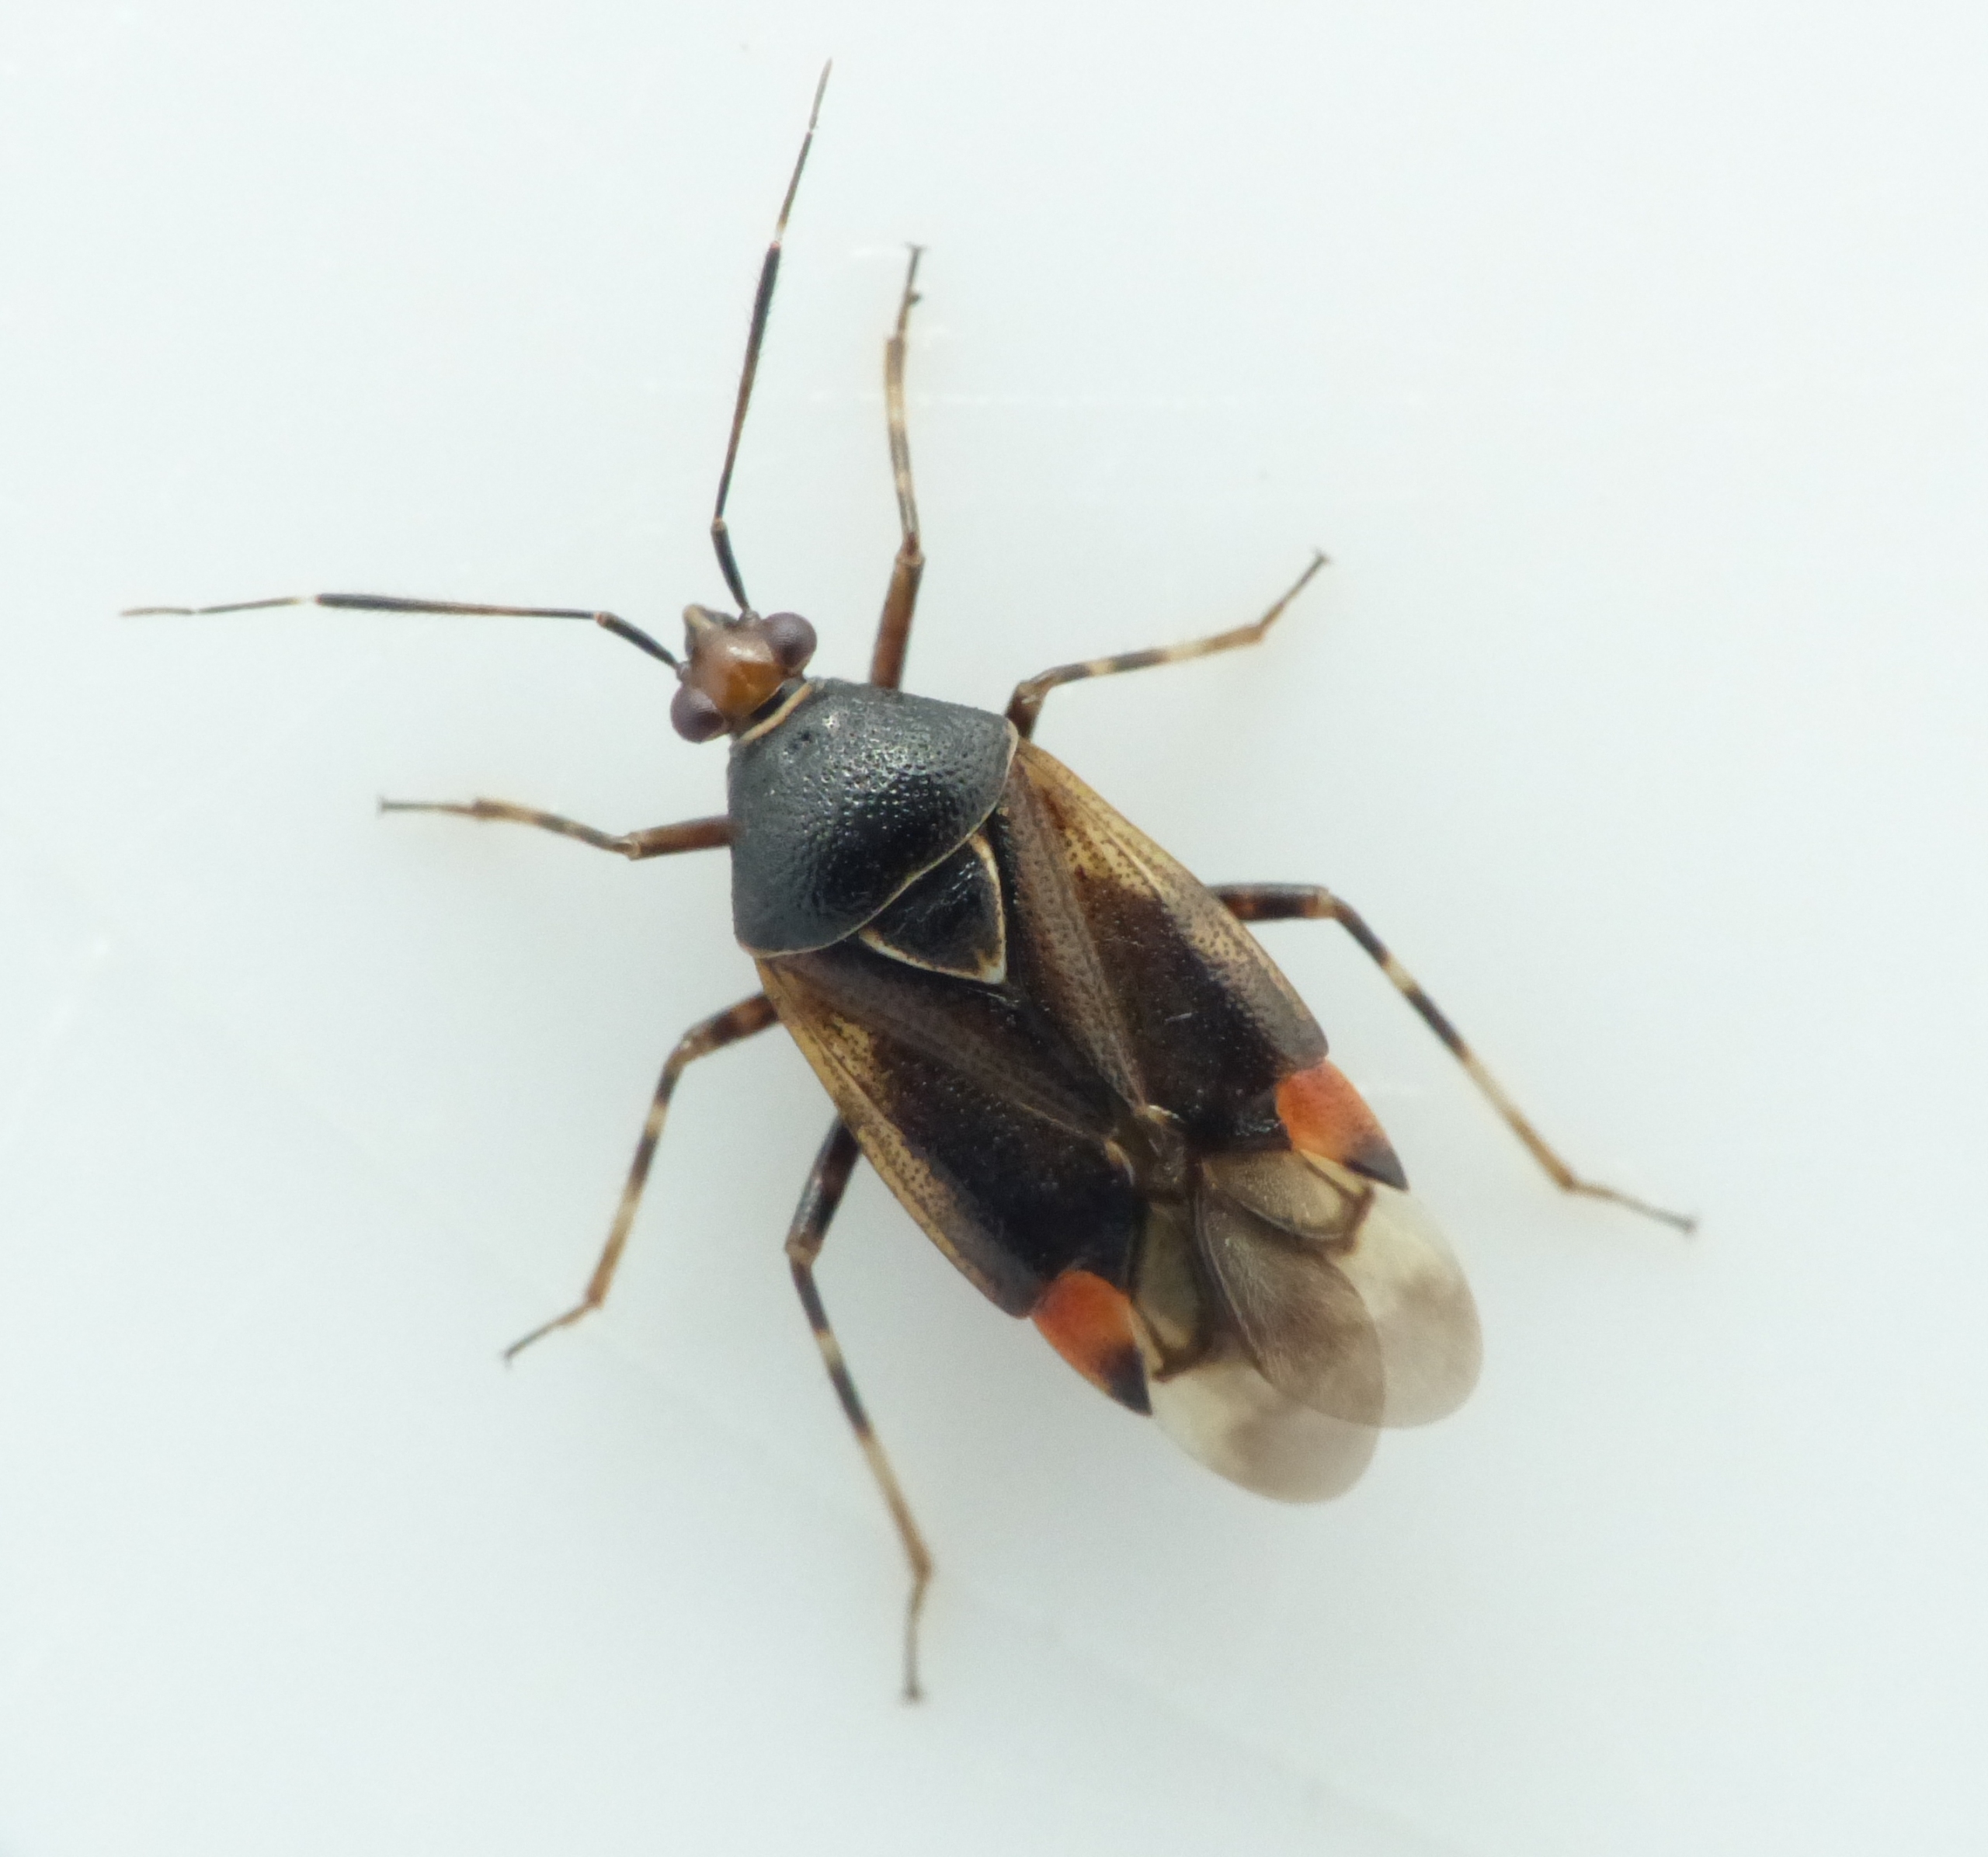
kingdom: Animalia
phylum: Arthropoda
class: Insecta
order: Hemiptera
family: Miridae
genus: Deraeocoris
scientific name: Deraeocoris ruber
